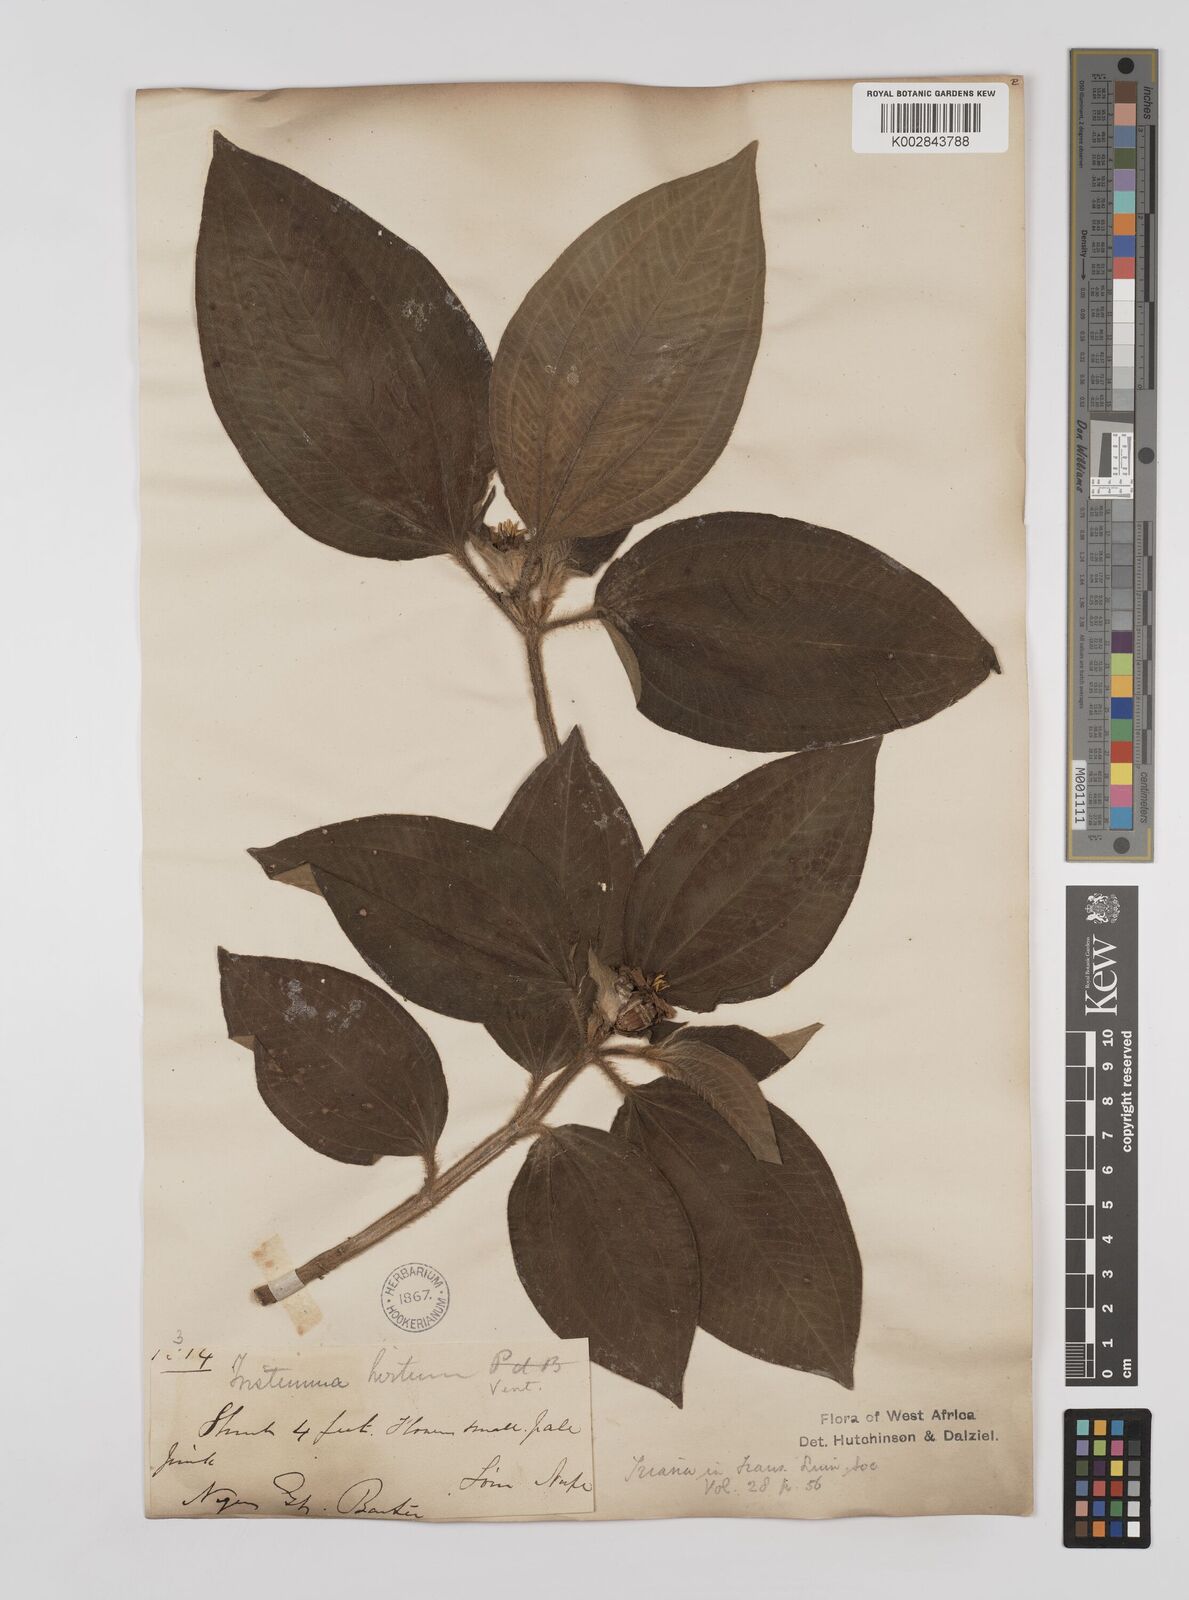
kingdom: Plantae
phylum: Tracheophyta
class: Magnoliopsida
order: Myrtales
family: Melastomataceae
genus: Tristemma
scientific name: Tristemma hirtum
